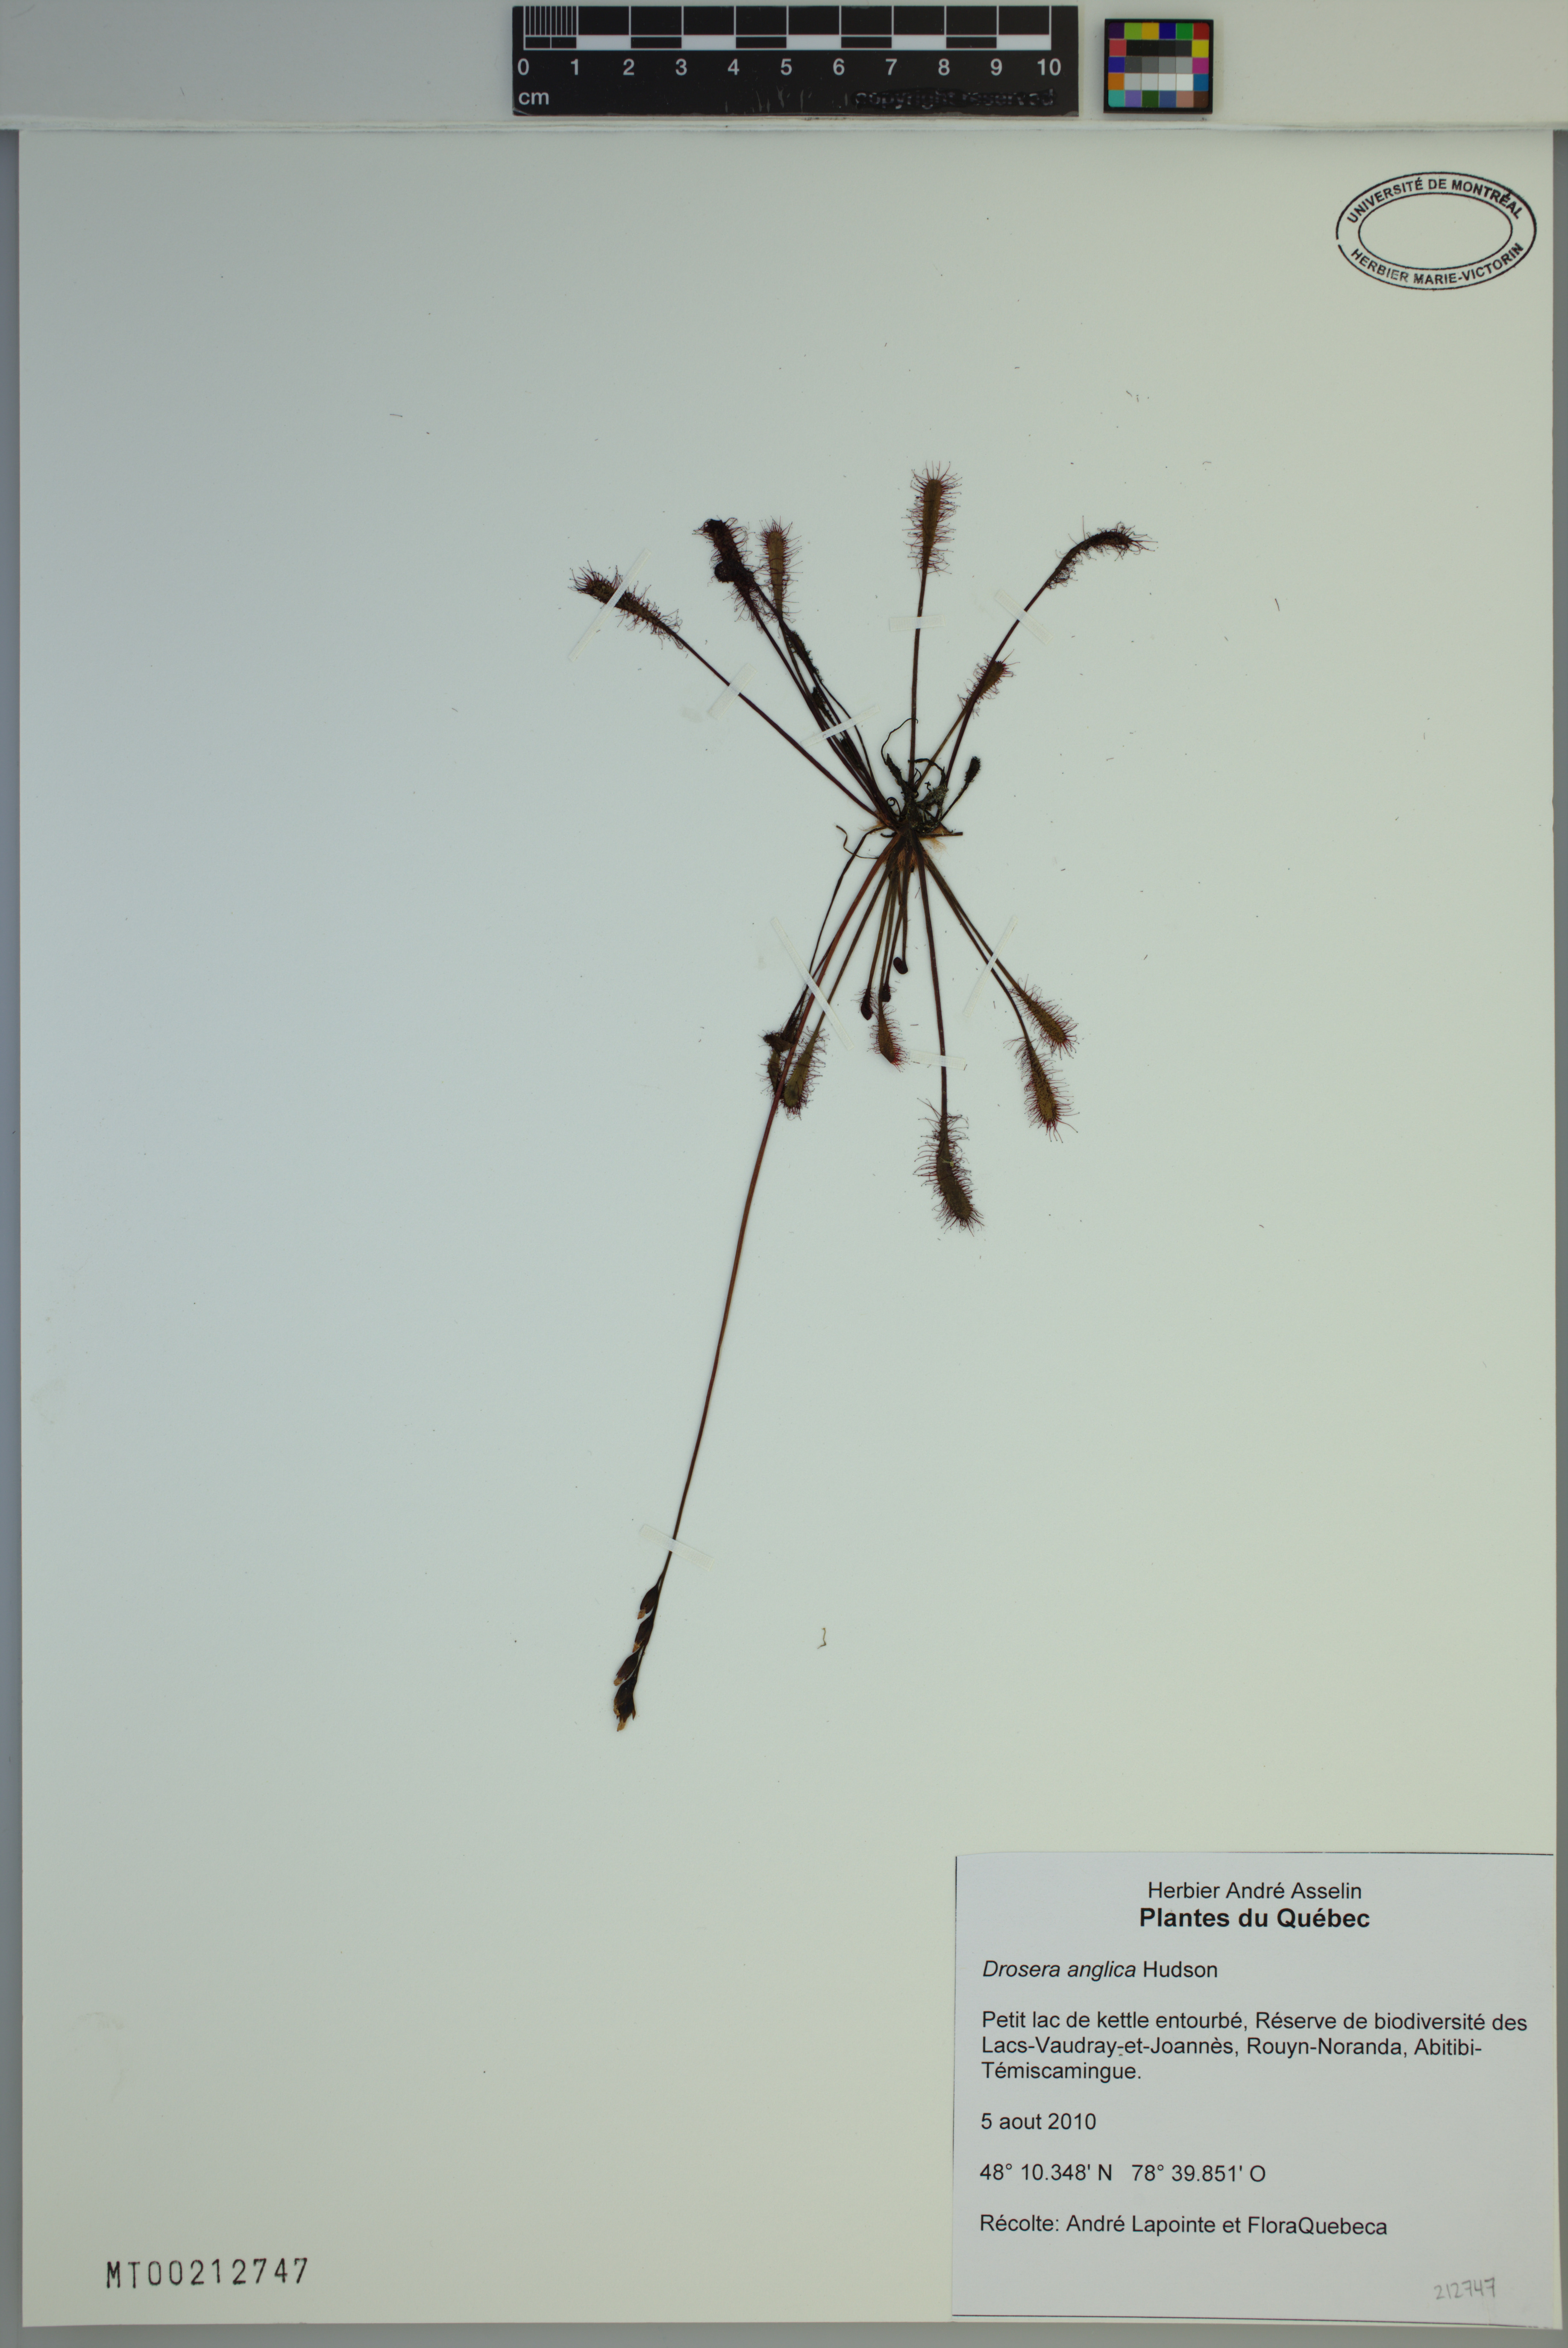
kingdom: Plantae
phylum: Tracheophyta
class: Magnoliopsida
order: Caryophyllales
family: Droseraceae
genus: Drosera
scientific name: Drosera anglica
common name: Great sundew
